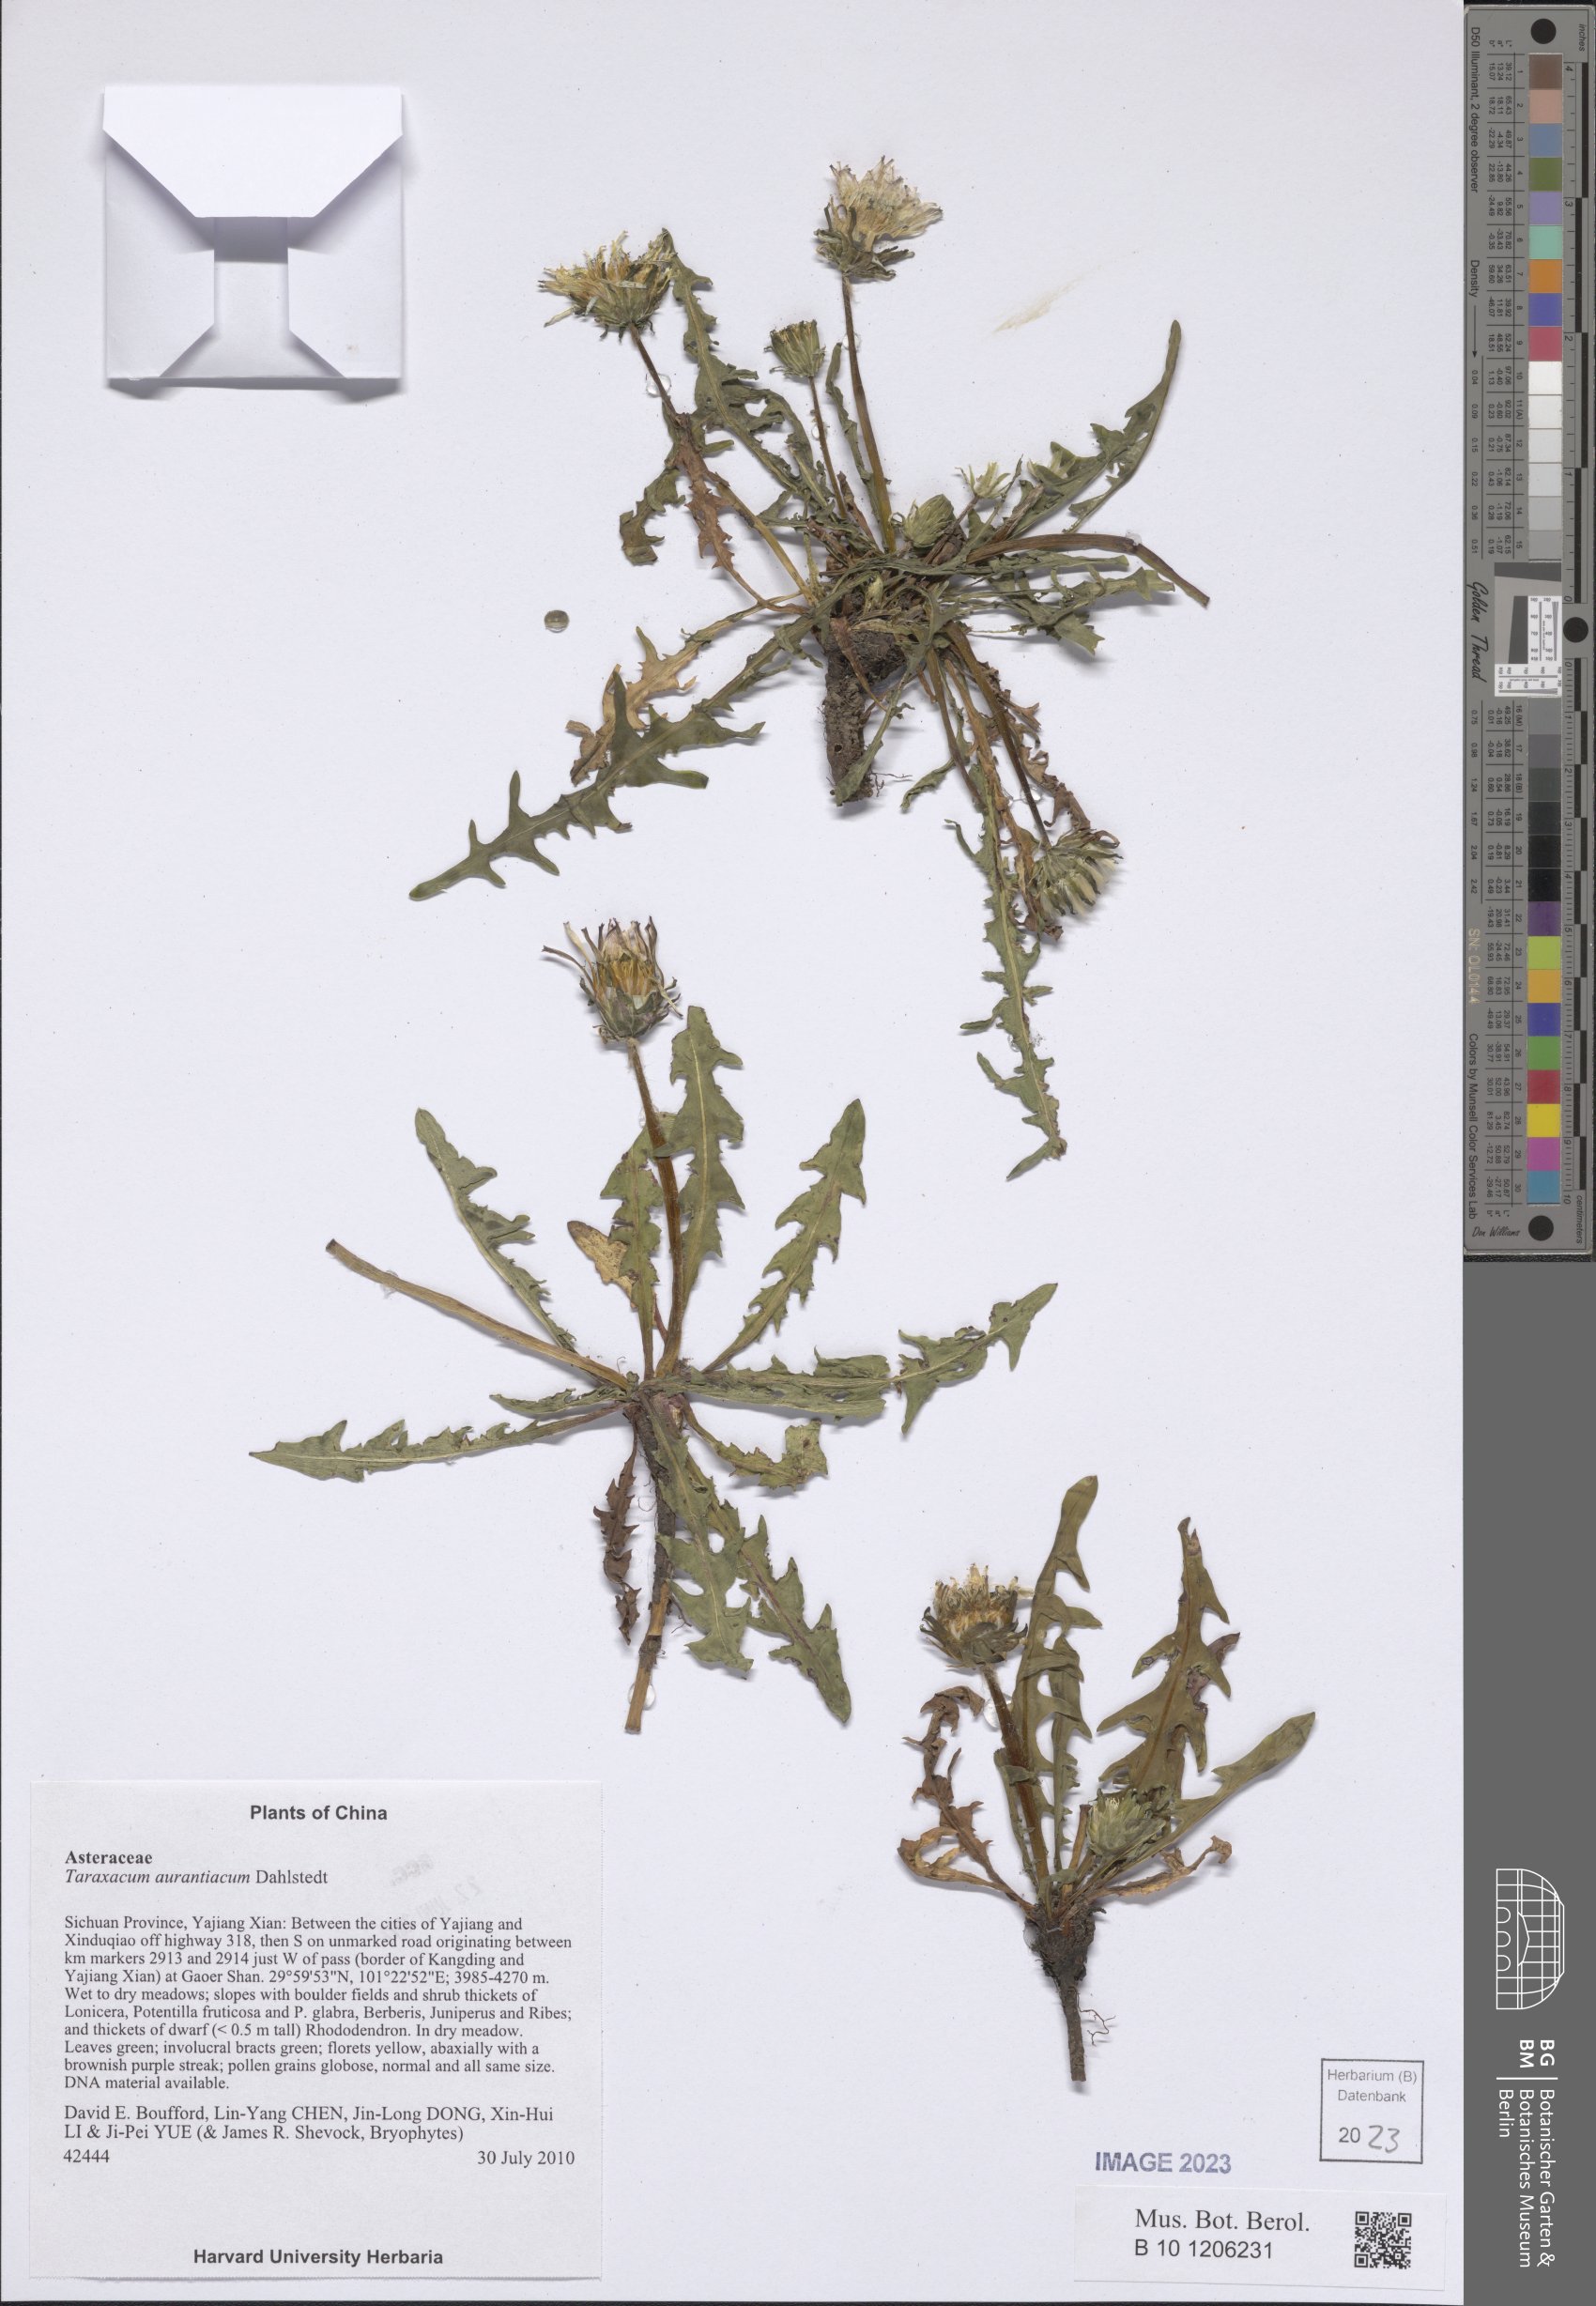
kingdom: Plantae
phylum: Tracheophyta
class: Magnoliopsida
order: Asterales
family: Asteraceae
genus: Taraxacum
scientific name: Taraxacum aurantiacum
